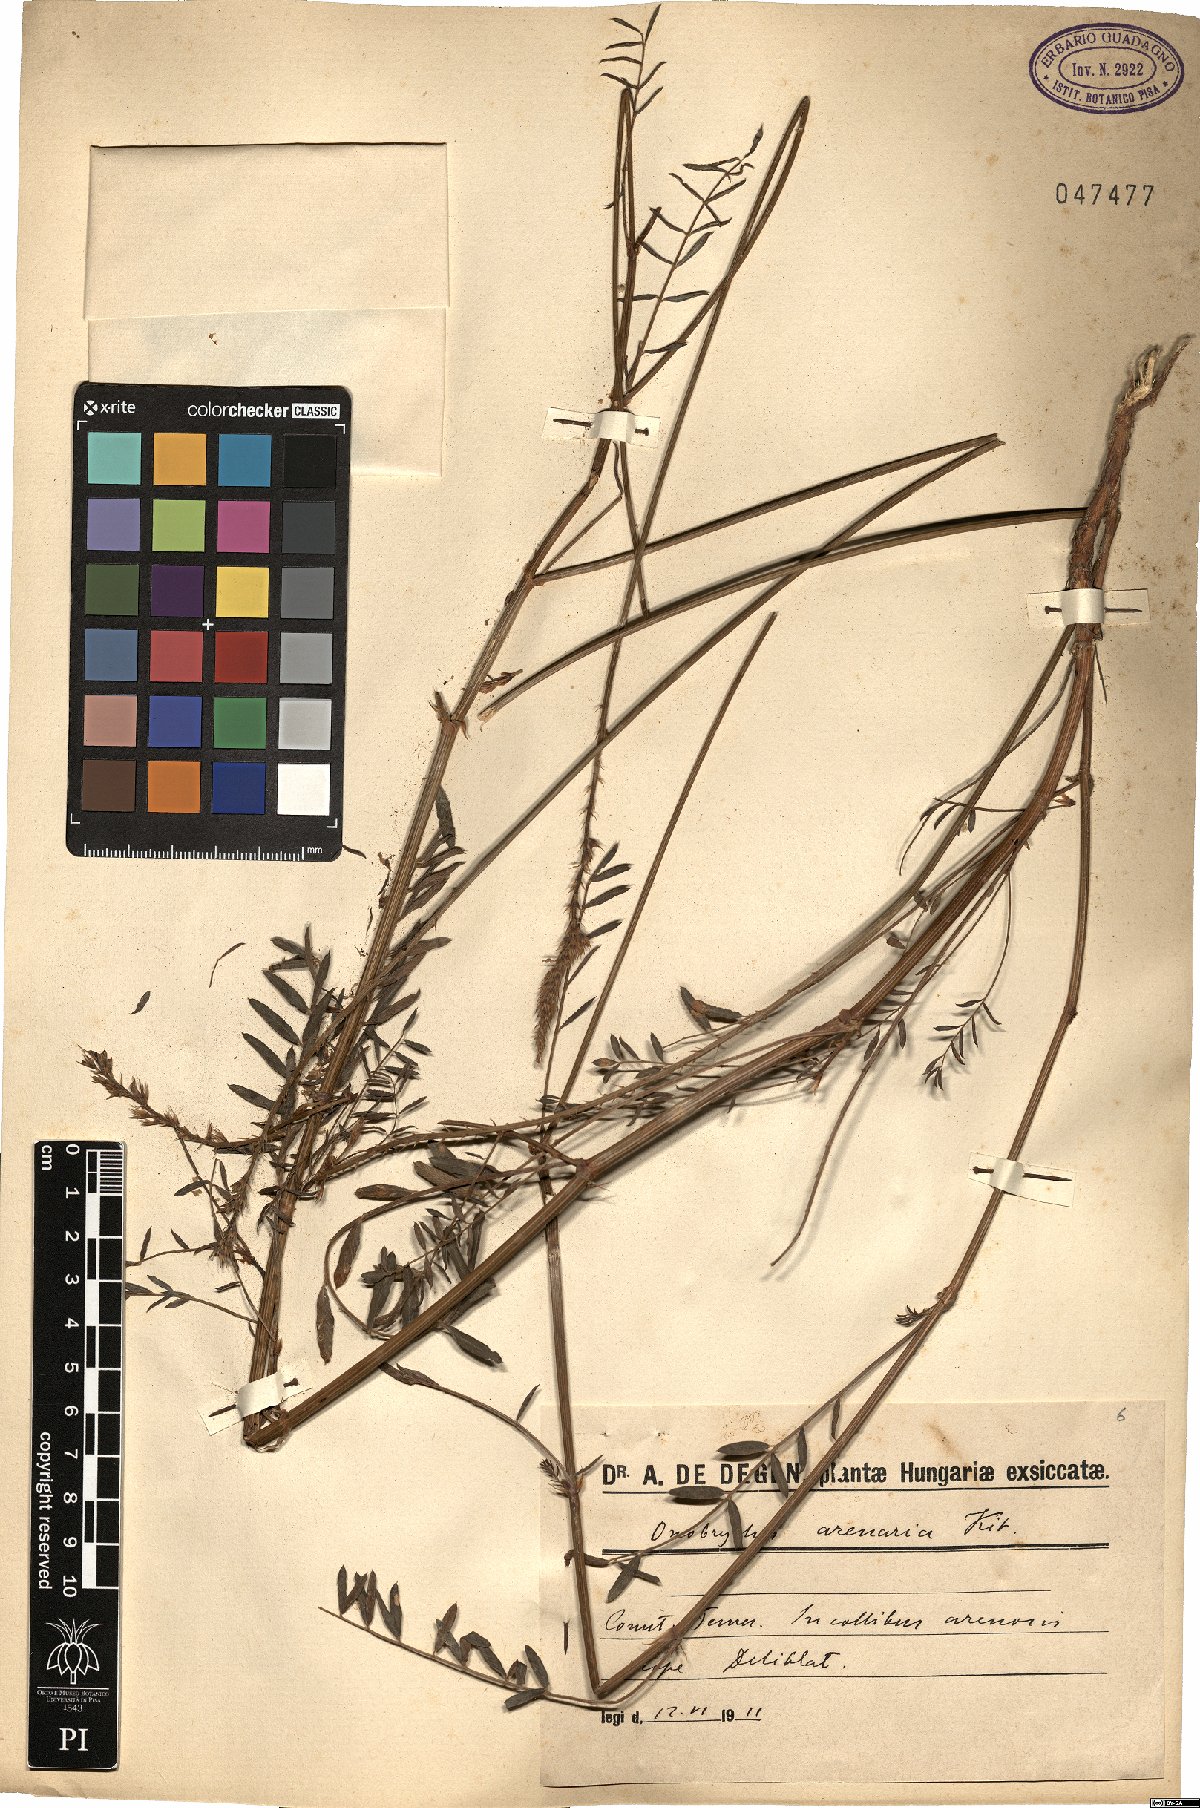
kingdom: Plantae
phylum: Tracheophyta
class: Magnoliopsida
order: Fabales
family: Fabaceae
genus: Onobrychis
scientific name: Onobrychis arenaria
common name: Sand esparcet
